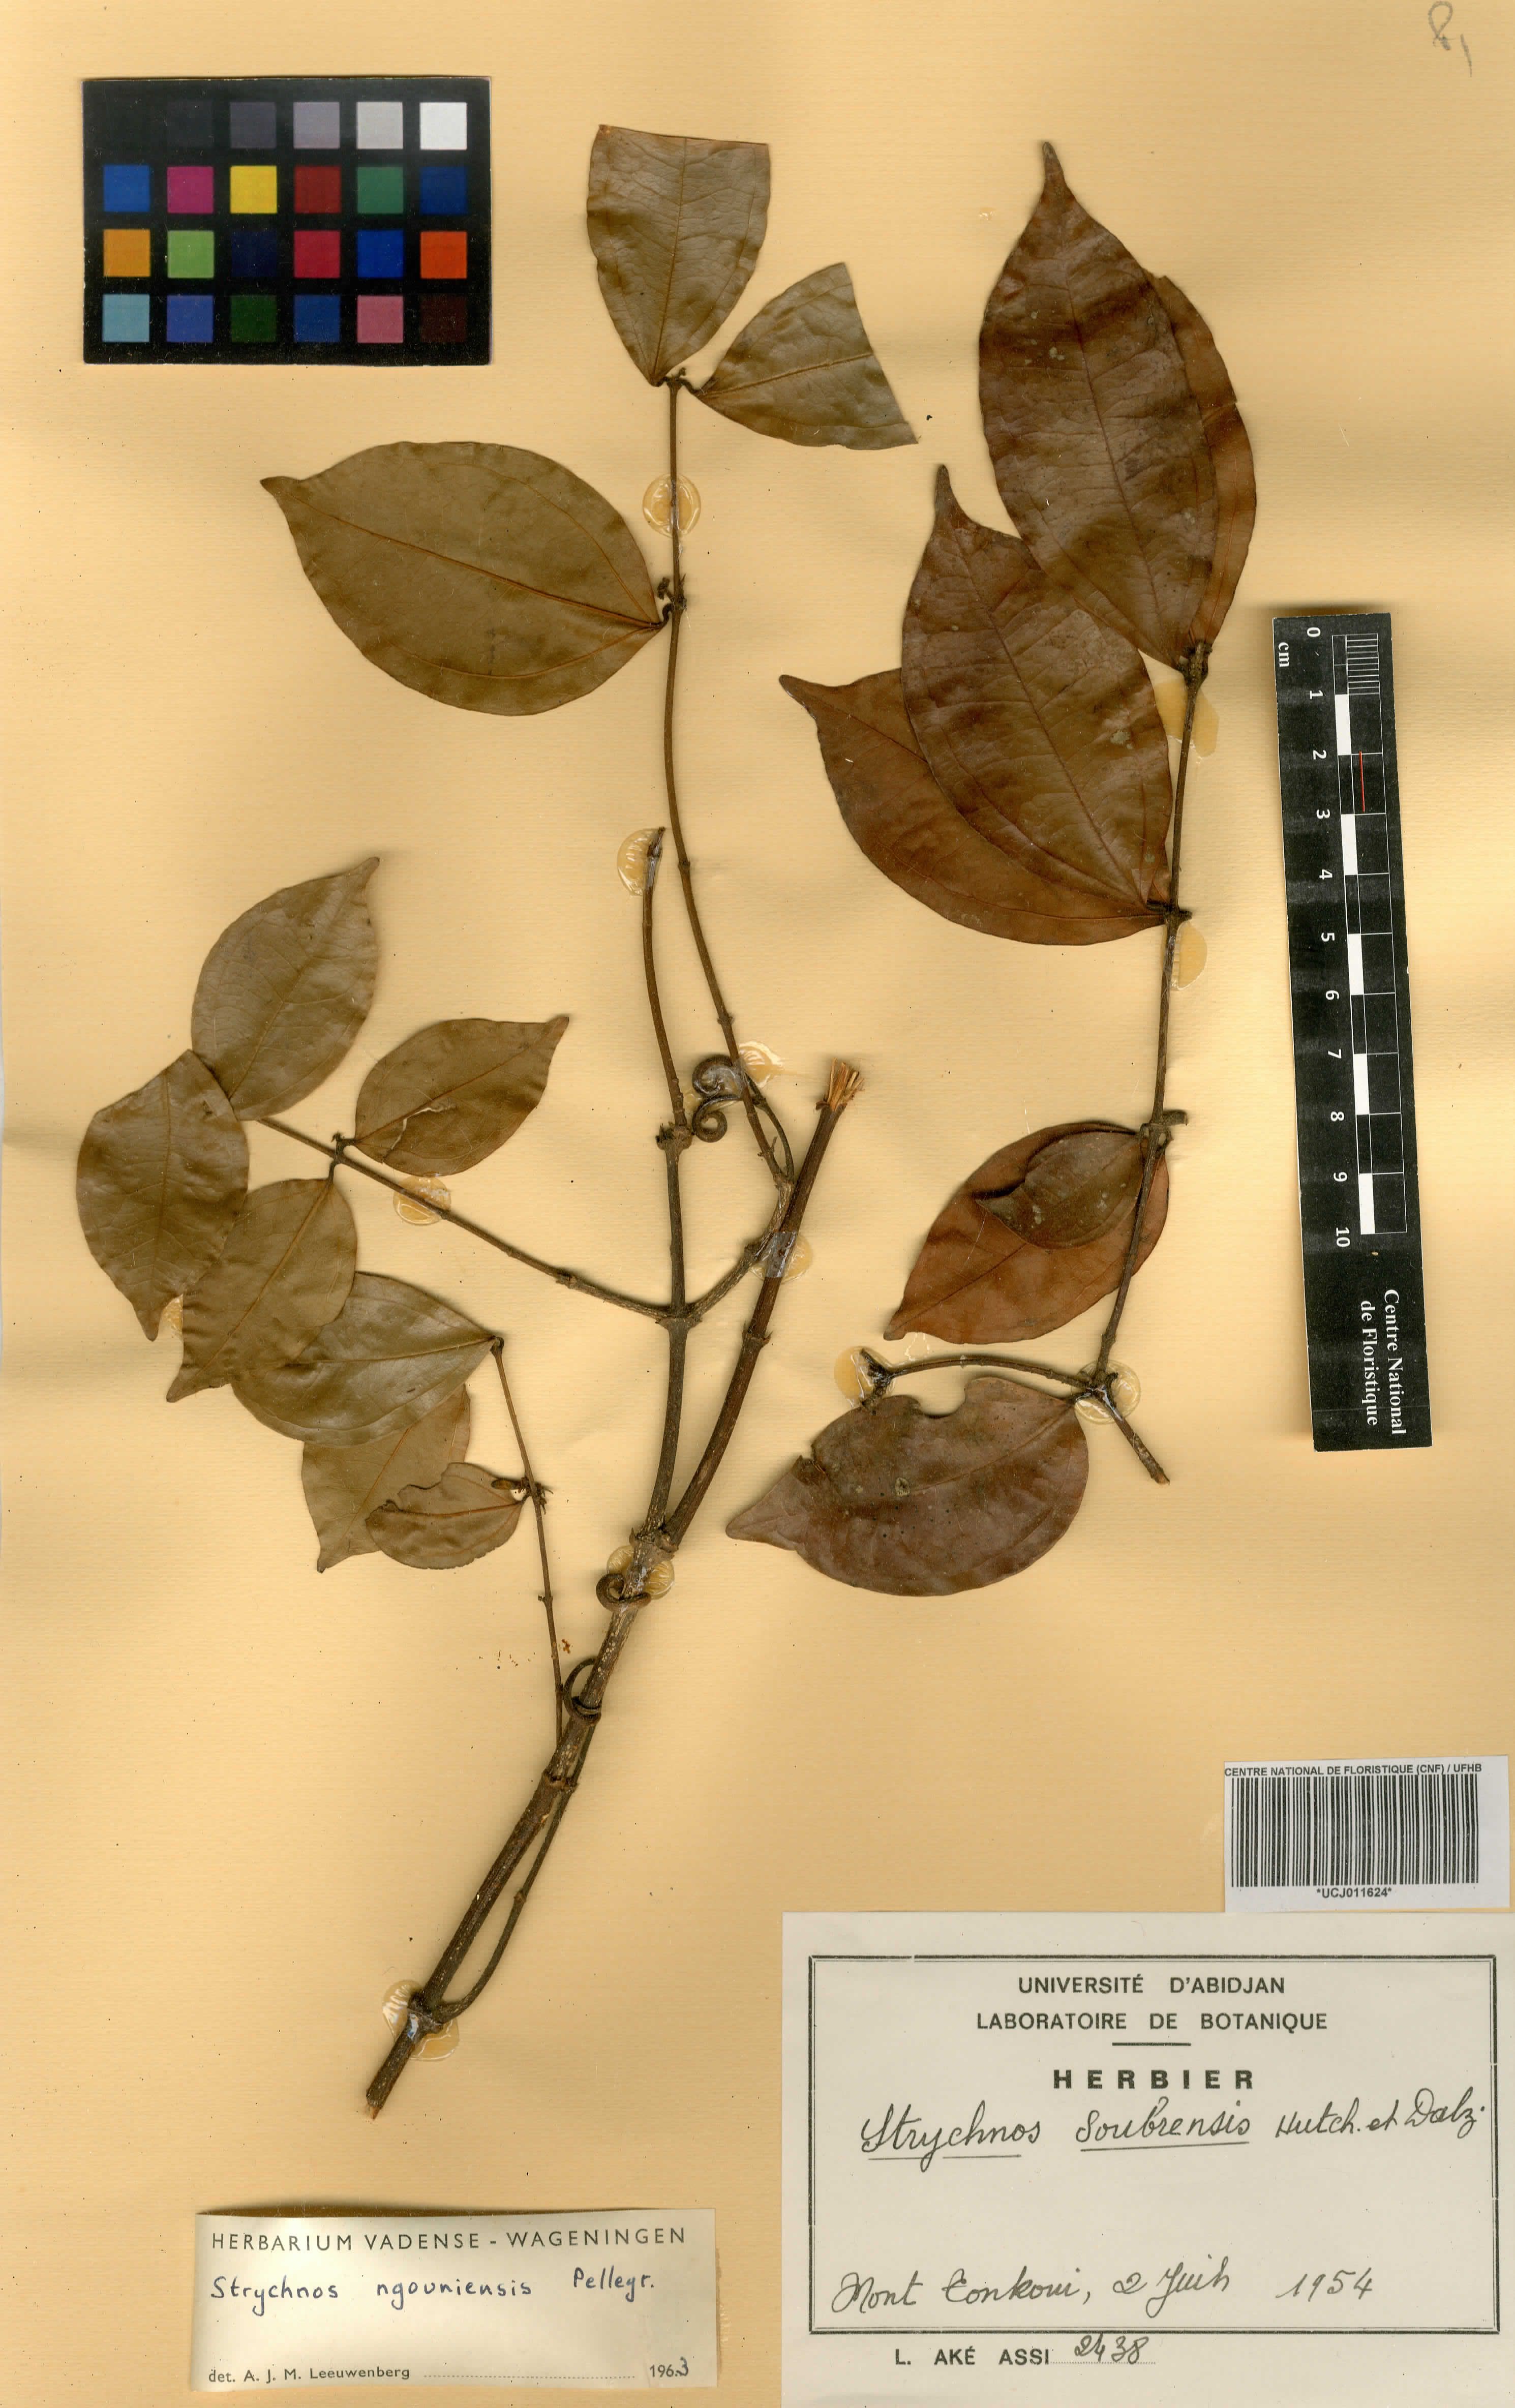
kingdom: Plantae
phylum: Tracheophyta
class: Magnoliopsida
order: Gentianales
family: Loganiaceae
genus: Strychnos
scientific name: Strychnos soubrensis
